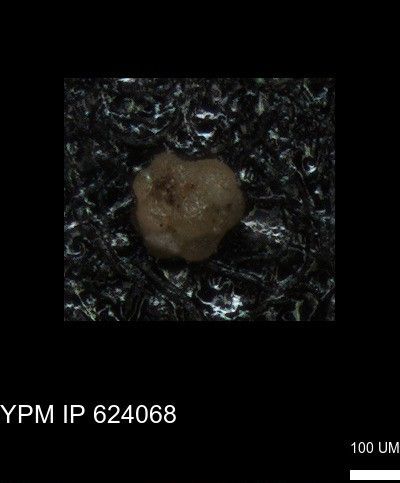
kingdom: Chromista
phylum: Foraminifera
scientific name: Foraminifera
